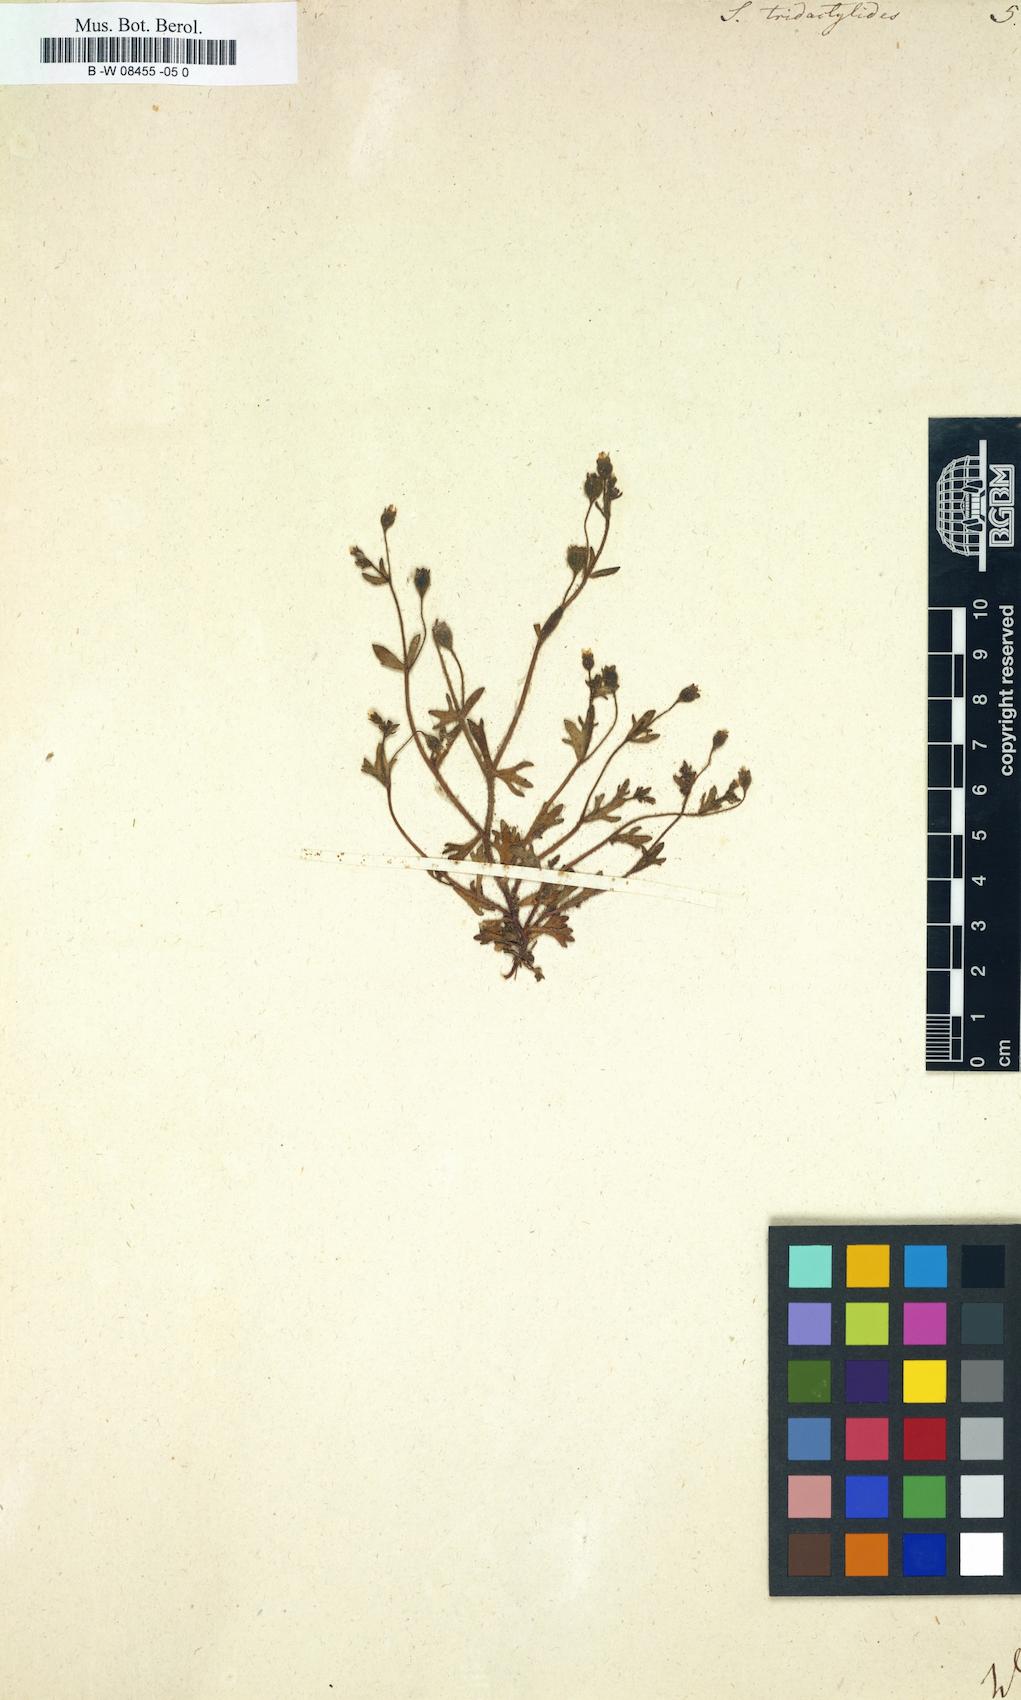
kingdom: Plantae
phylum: Tracheophyta
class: Magnoliopsida
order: Saxifragales
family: Saxifragaceae
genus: Saxifraga
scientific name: Saxifraga tridactylites
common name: Rue-leaved saxifrage
